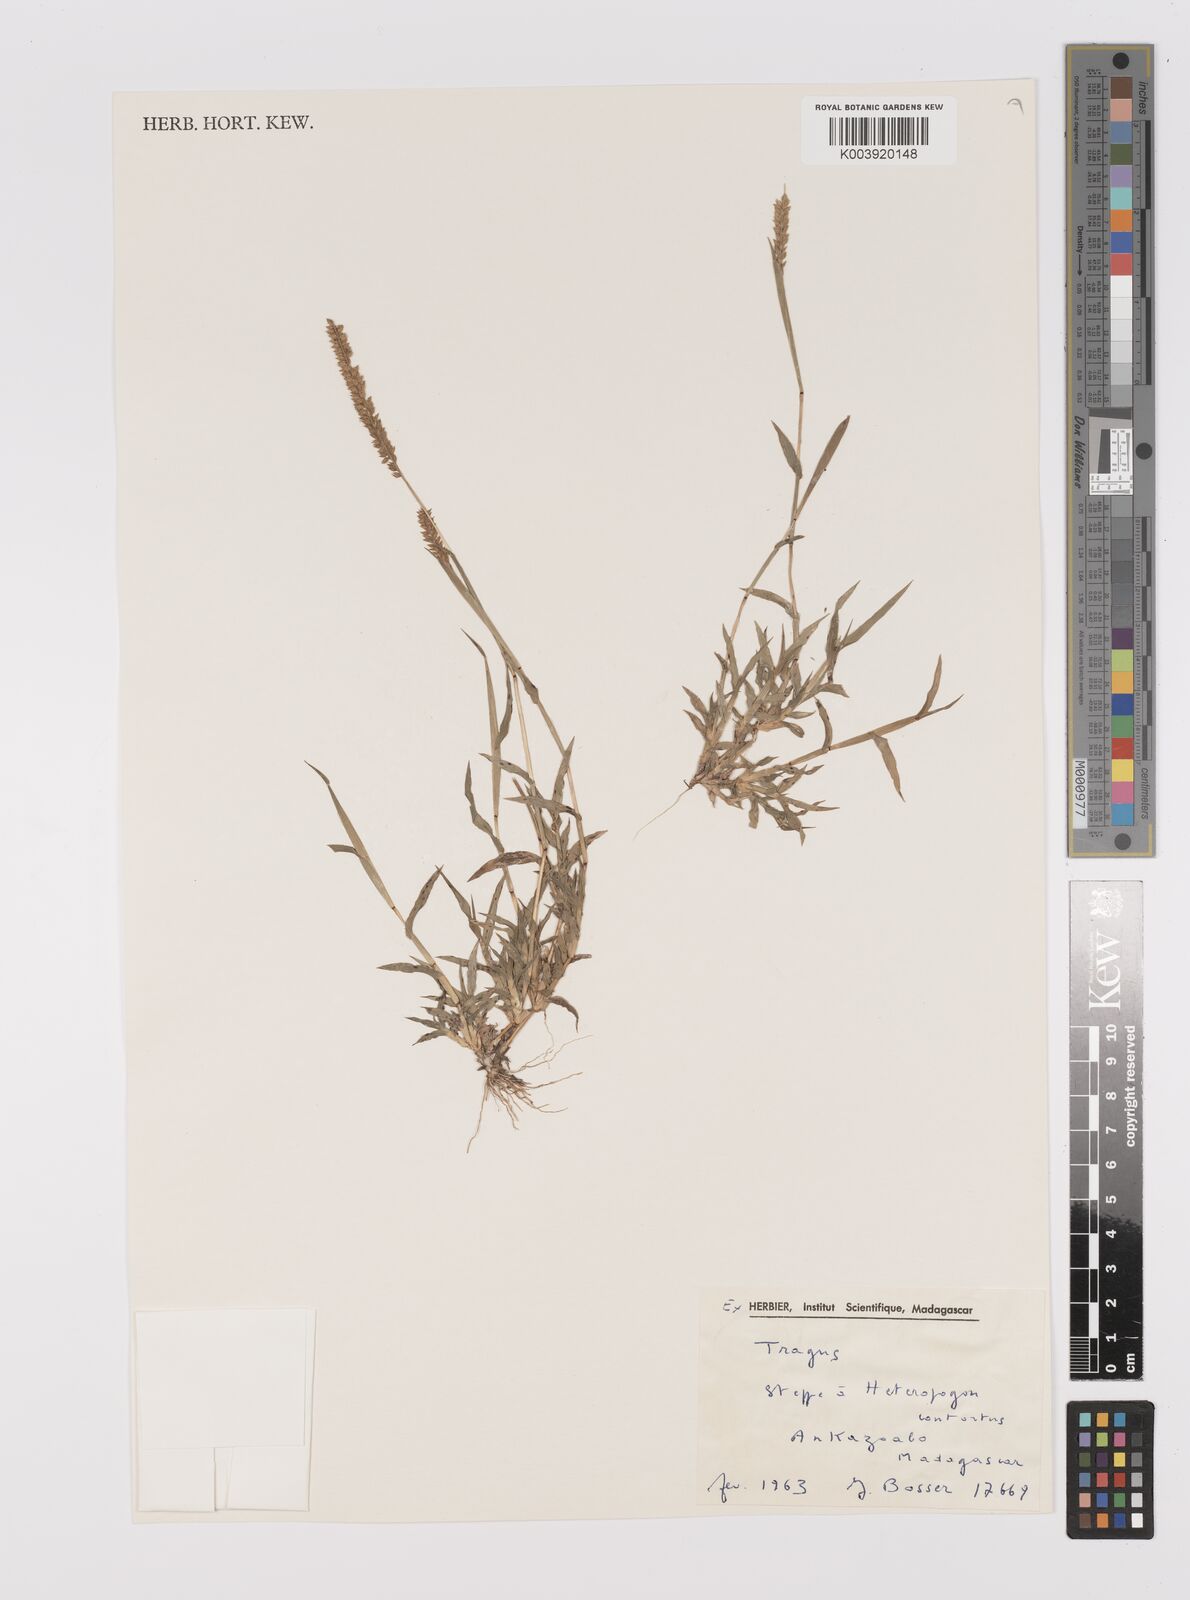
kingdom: Plantae
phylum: Tracheophyta
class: Liliopsida
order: Poales
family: Poaceae
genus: Tragus
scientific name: Tragus berteronianus
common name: African bur-grass
